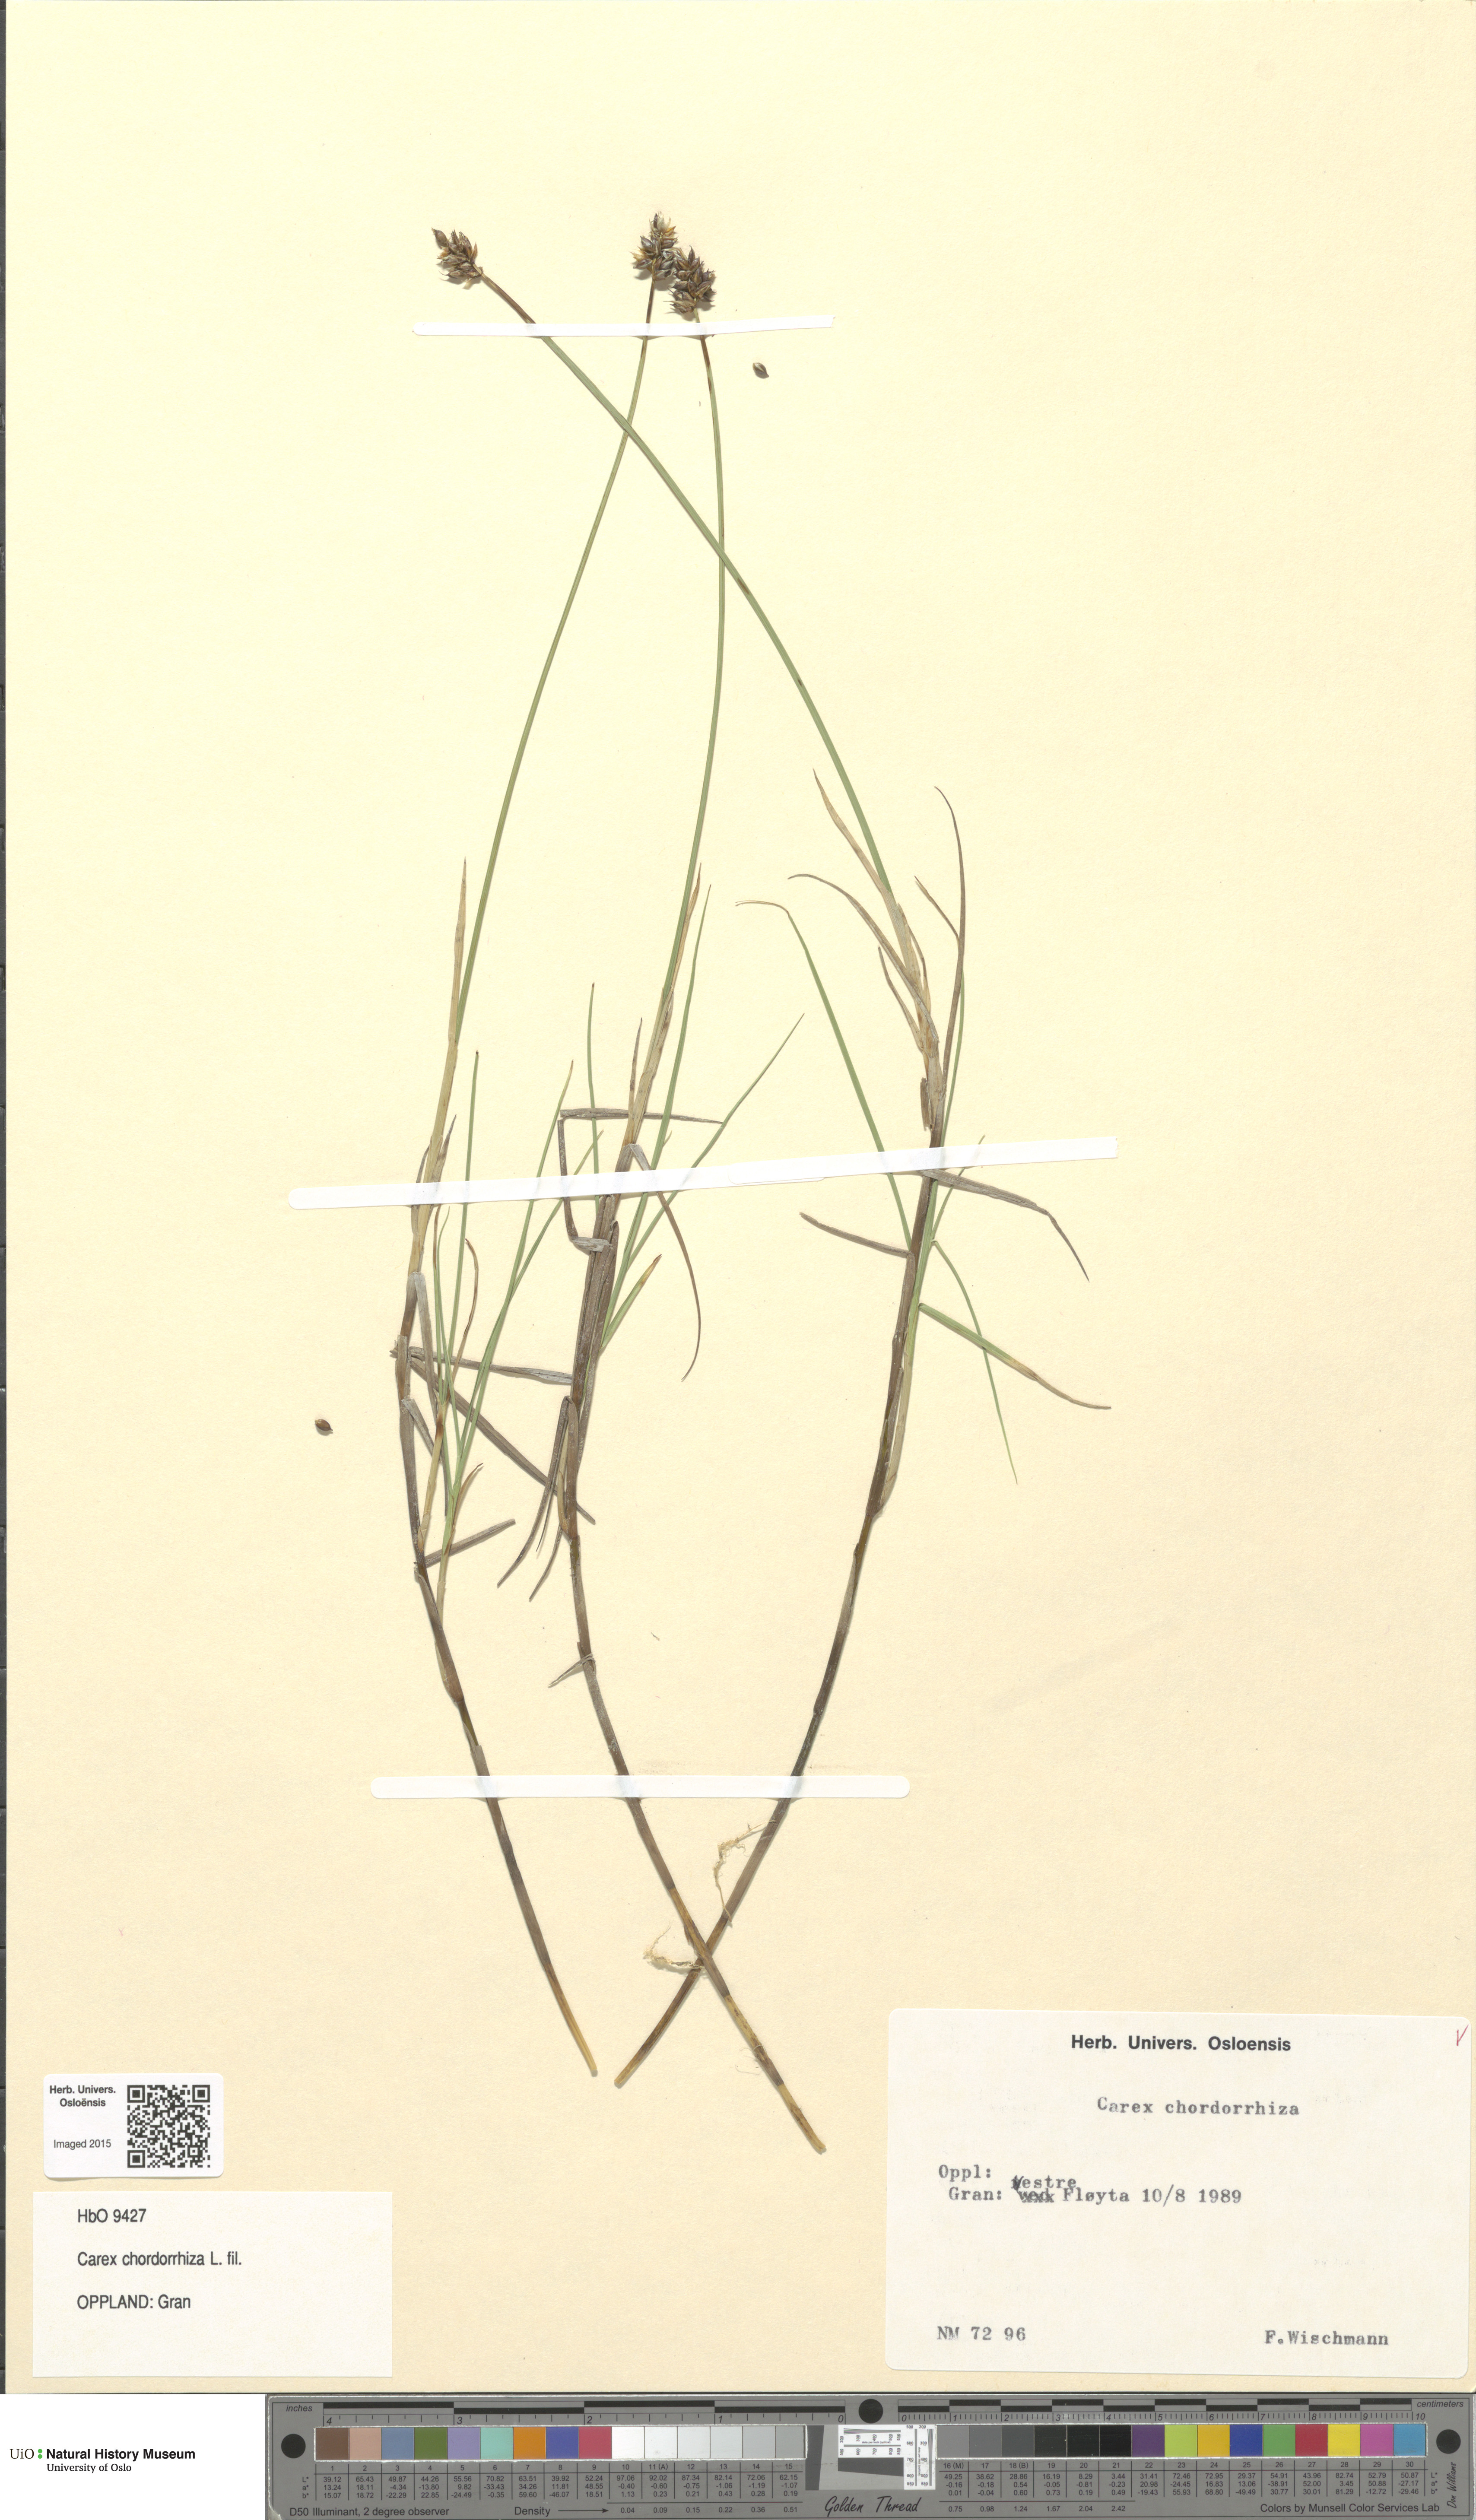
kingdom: Plantae
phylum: Tracheophyta
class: Liliopsida
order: Poales
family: Cyperaceae
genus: Carex
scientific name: Carex chordorrhiza
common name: String sedge
